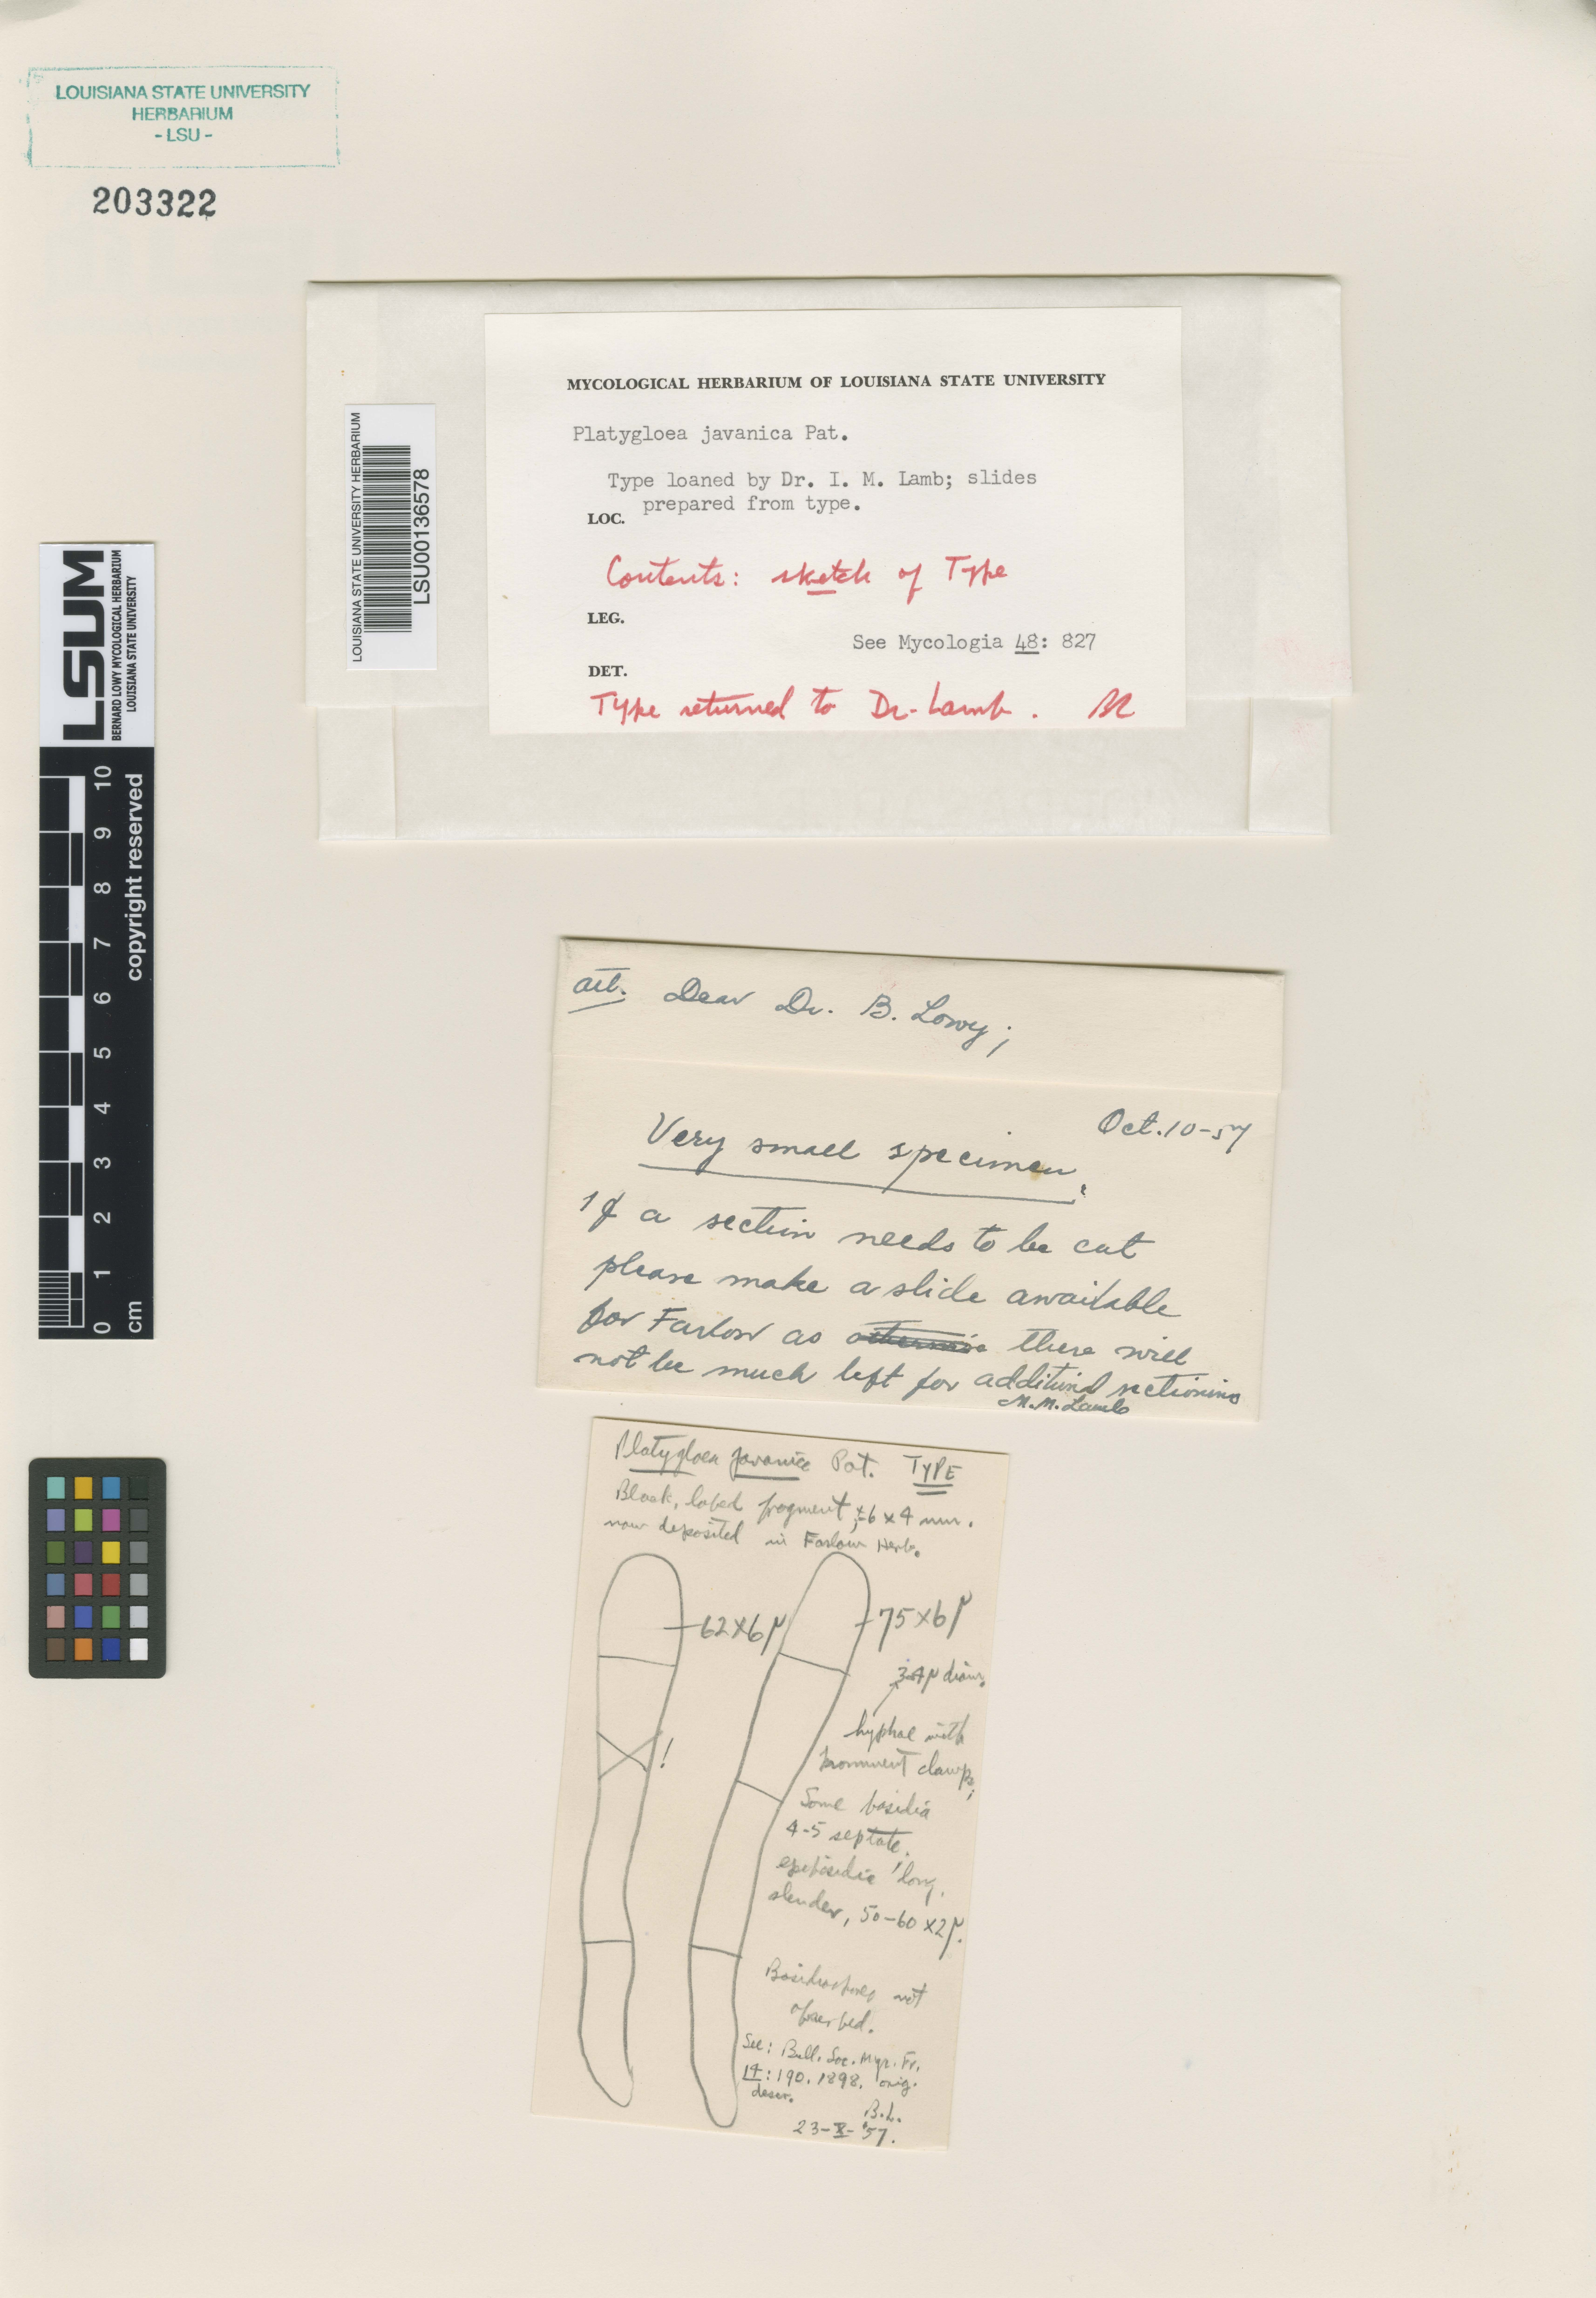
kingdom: Fungi
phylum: Basidiomycota
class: Pucciniomycetes
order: Platygloeales
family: Platygloeaceae
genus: Platygloea
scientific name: Platygloea javanica
